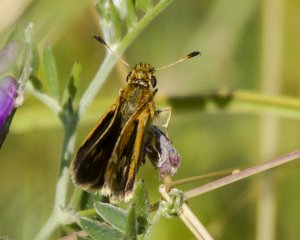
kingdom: Animalia
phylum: Arthropoda
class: Insecta
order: Lepidoptera
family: Hesperiidae
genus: Polites
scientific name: Polites themistocles
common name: Tawny-edged Skipper
